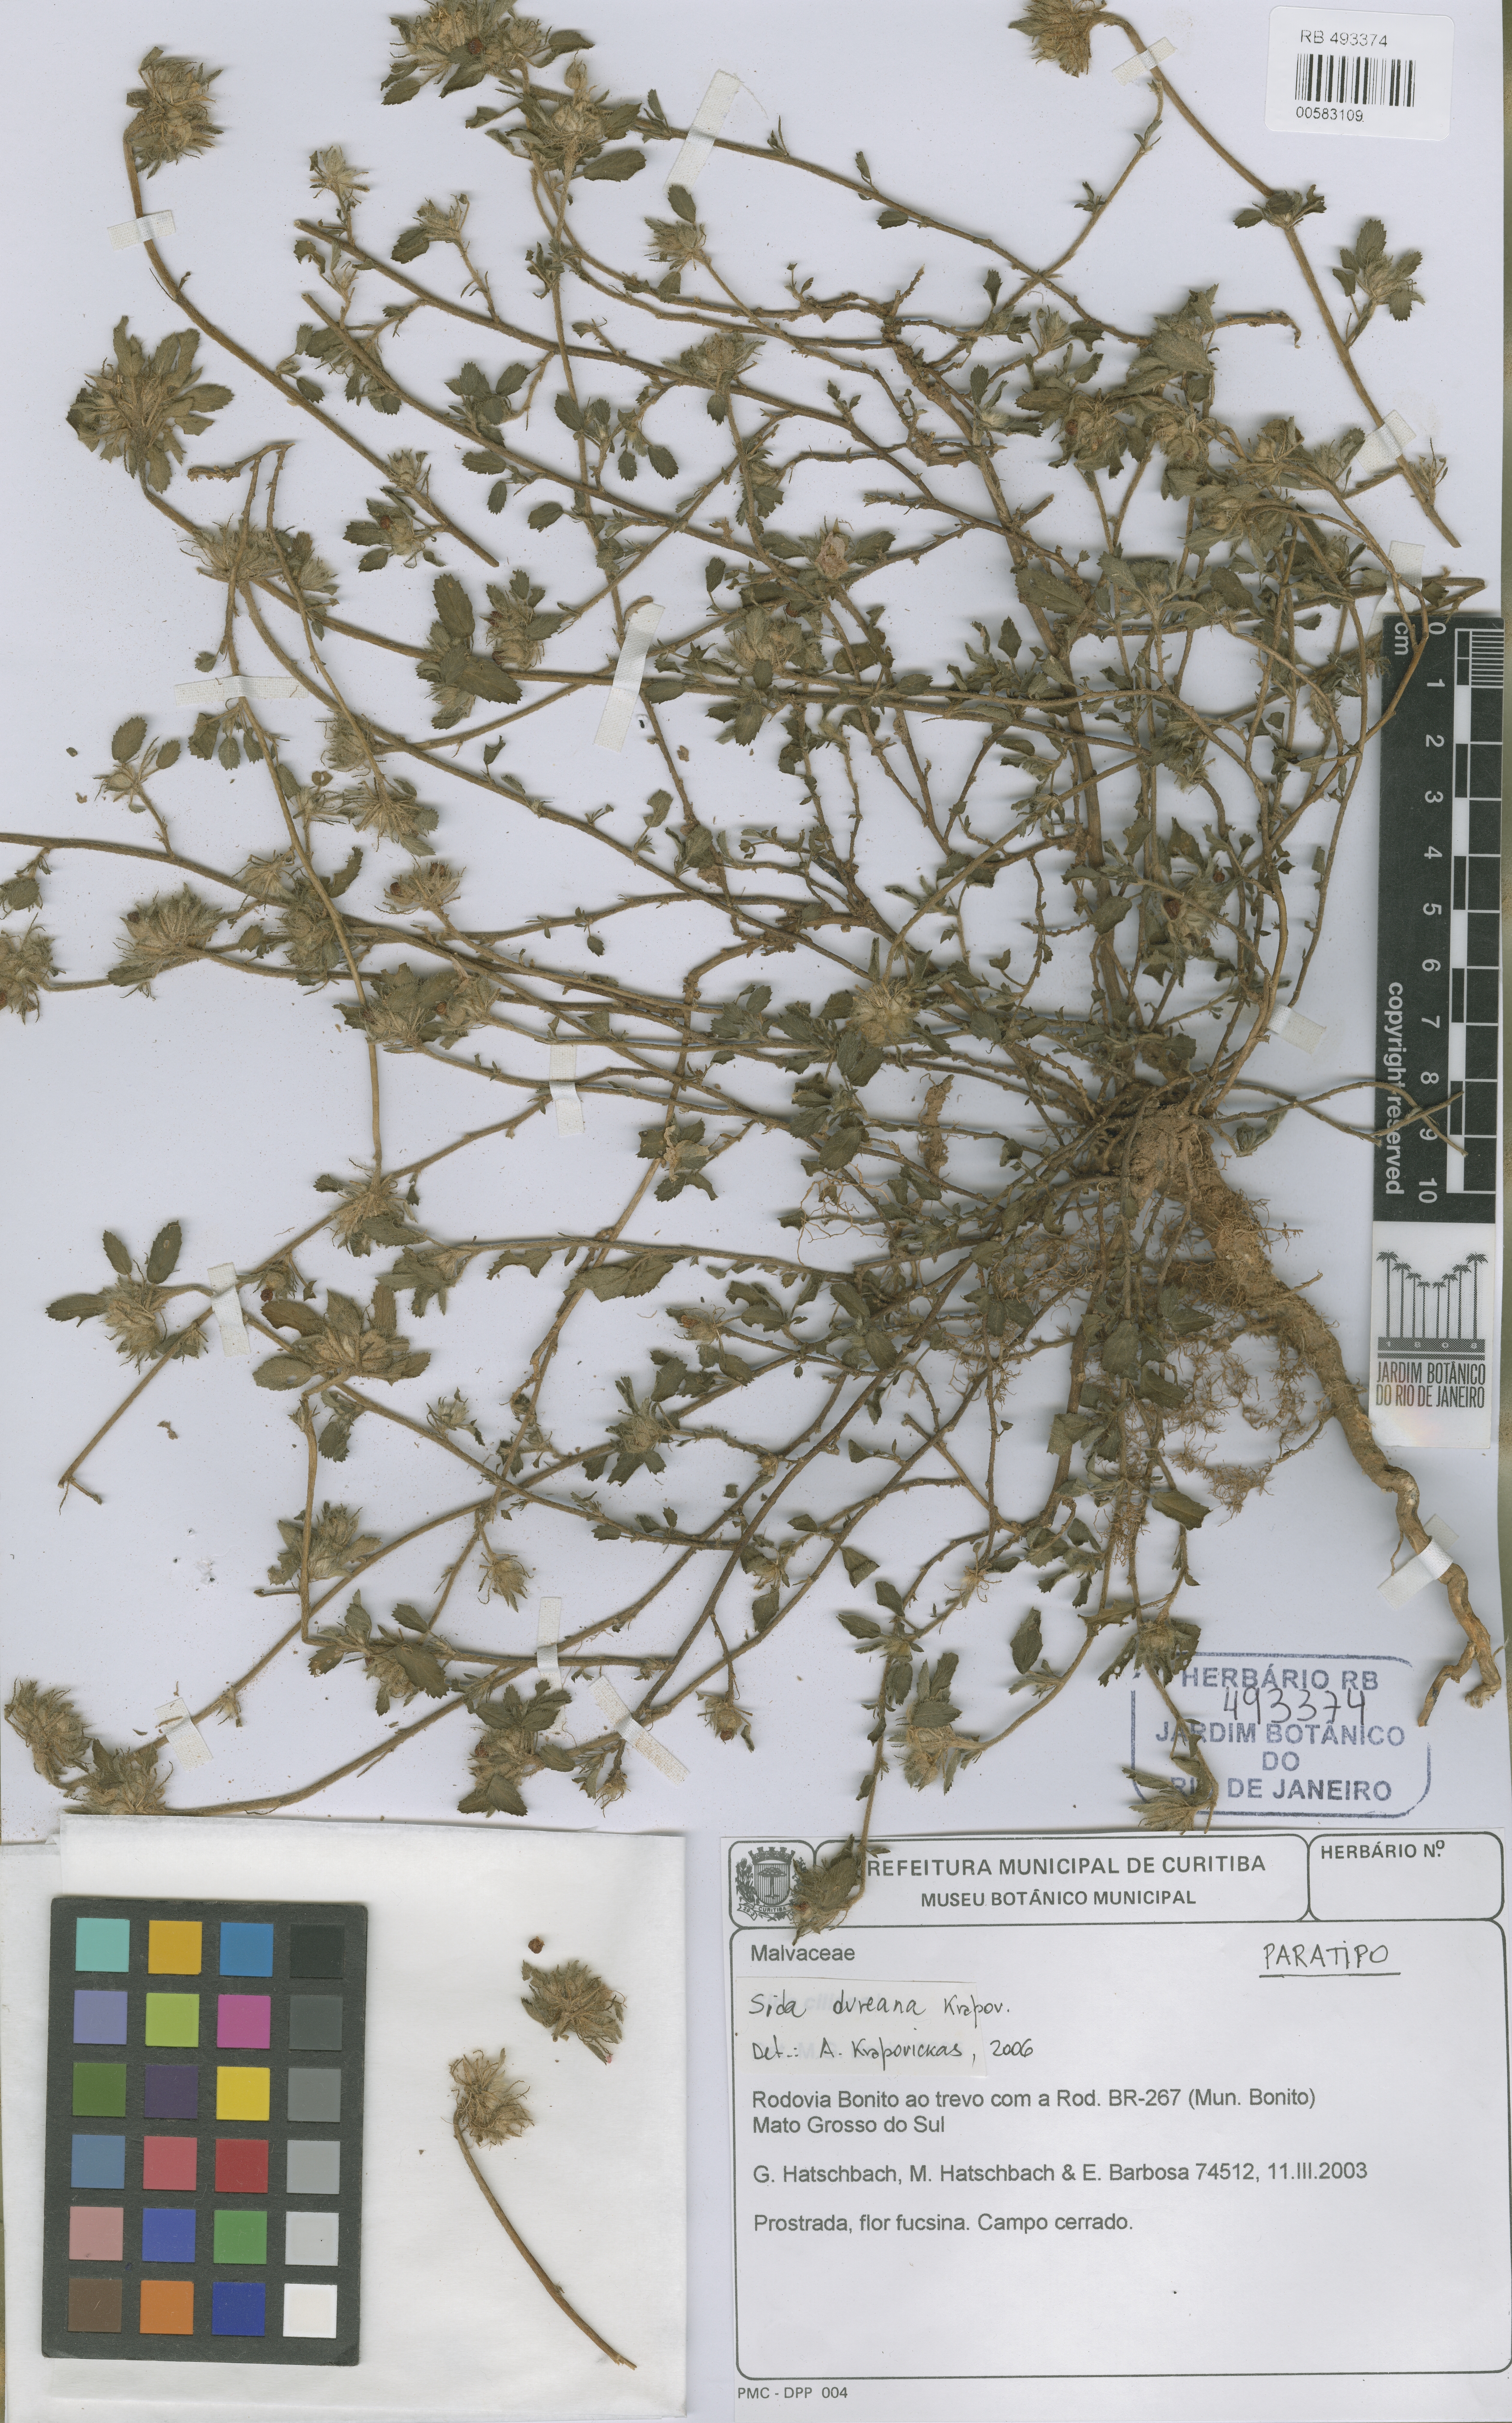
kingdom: Plantae
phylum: Tracheophyta
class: Magnoliopsida
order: Malvales
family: Malvaceae
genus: Sida
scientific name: Sida dureana
